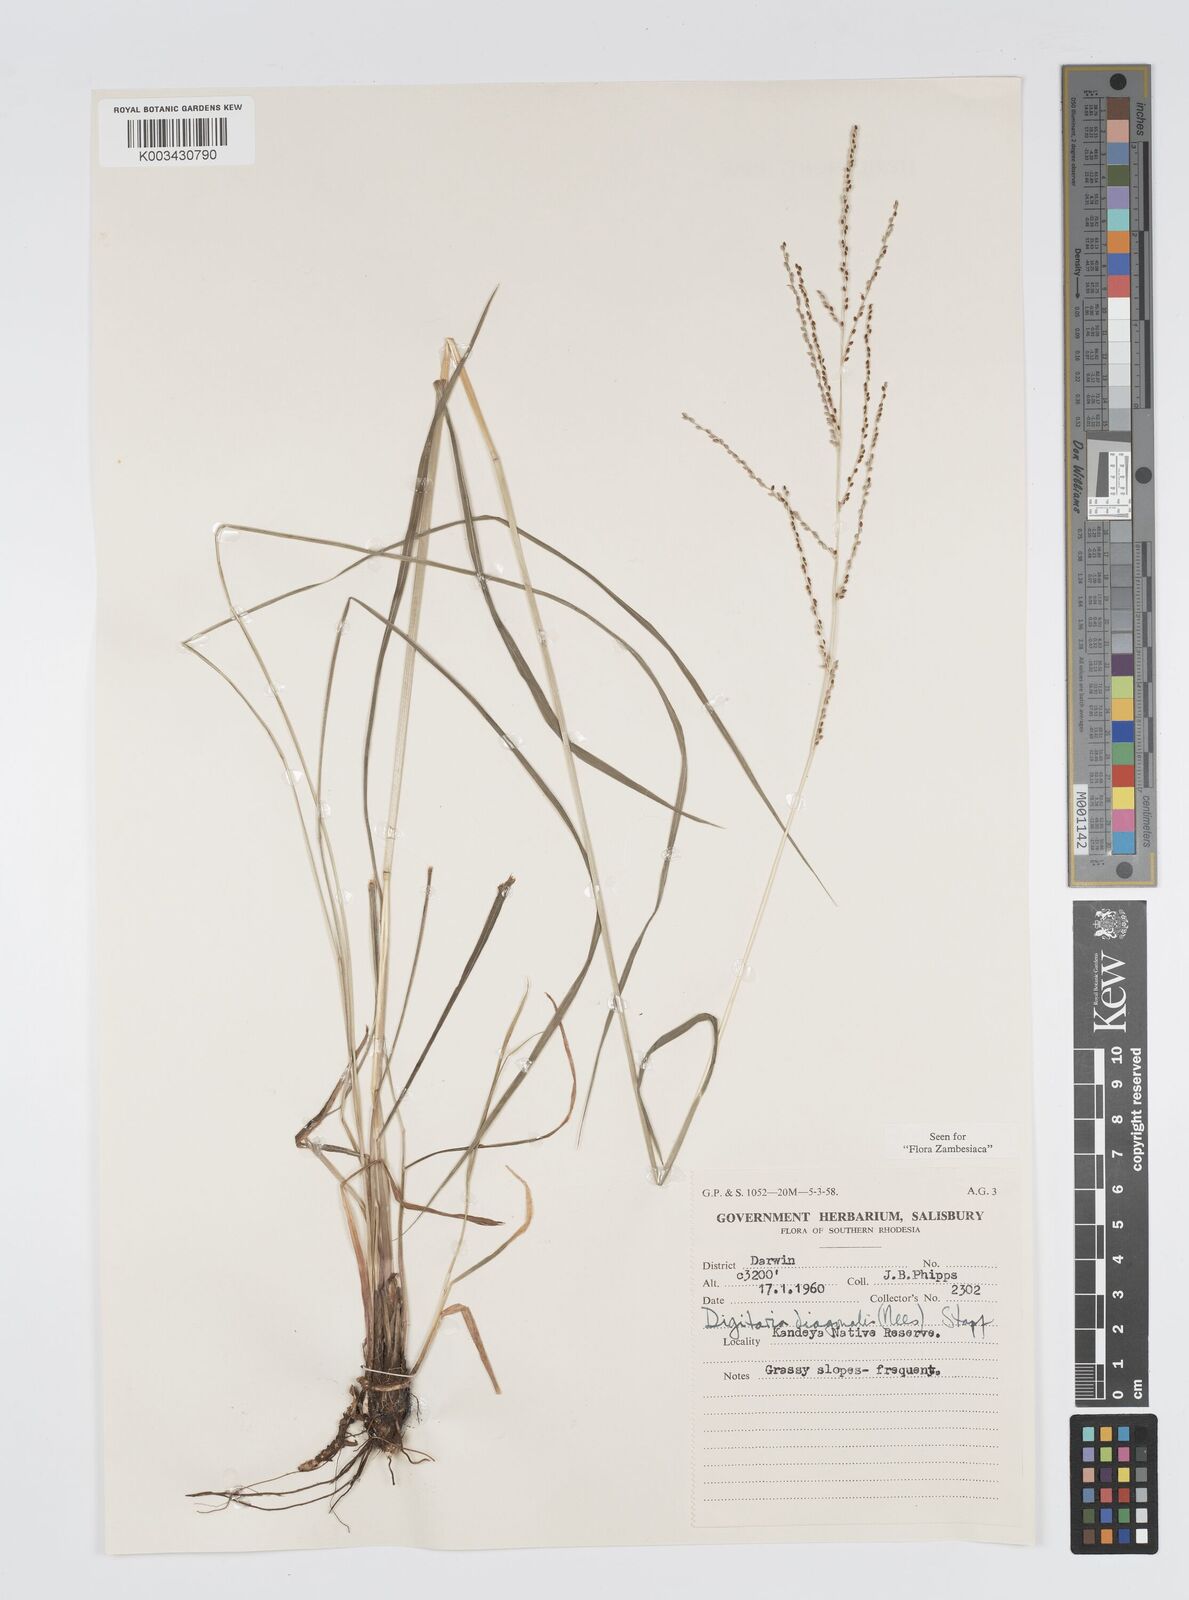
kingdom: Plantae
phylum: Tracheophyta
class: Liliopsida
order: Poales
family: Poaceae
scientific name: Poaceae
